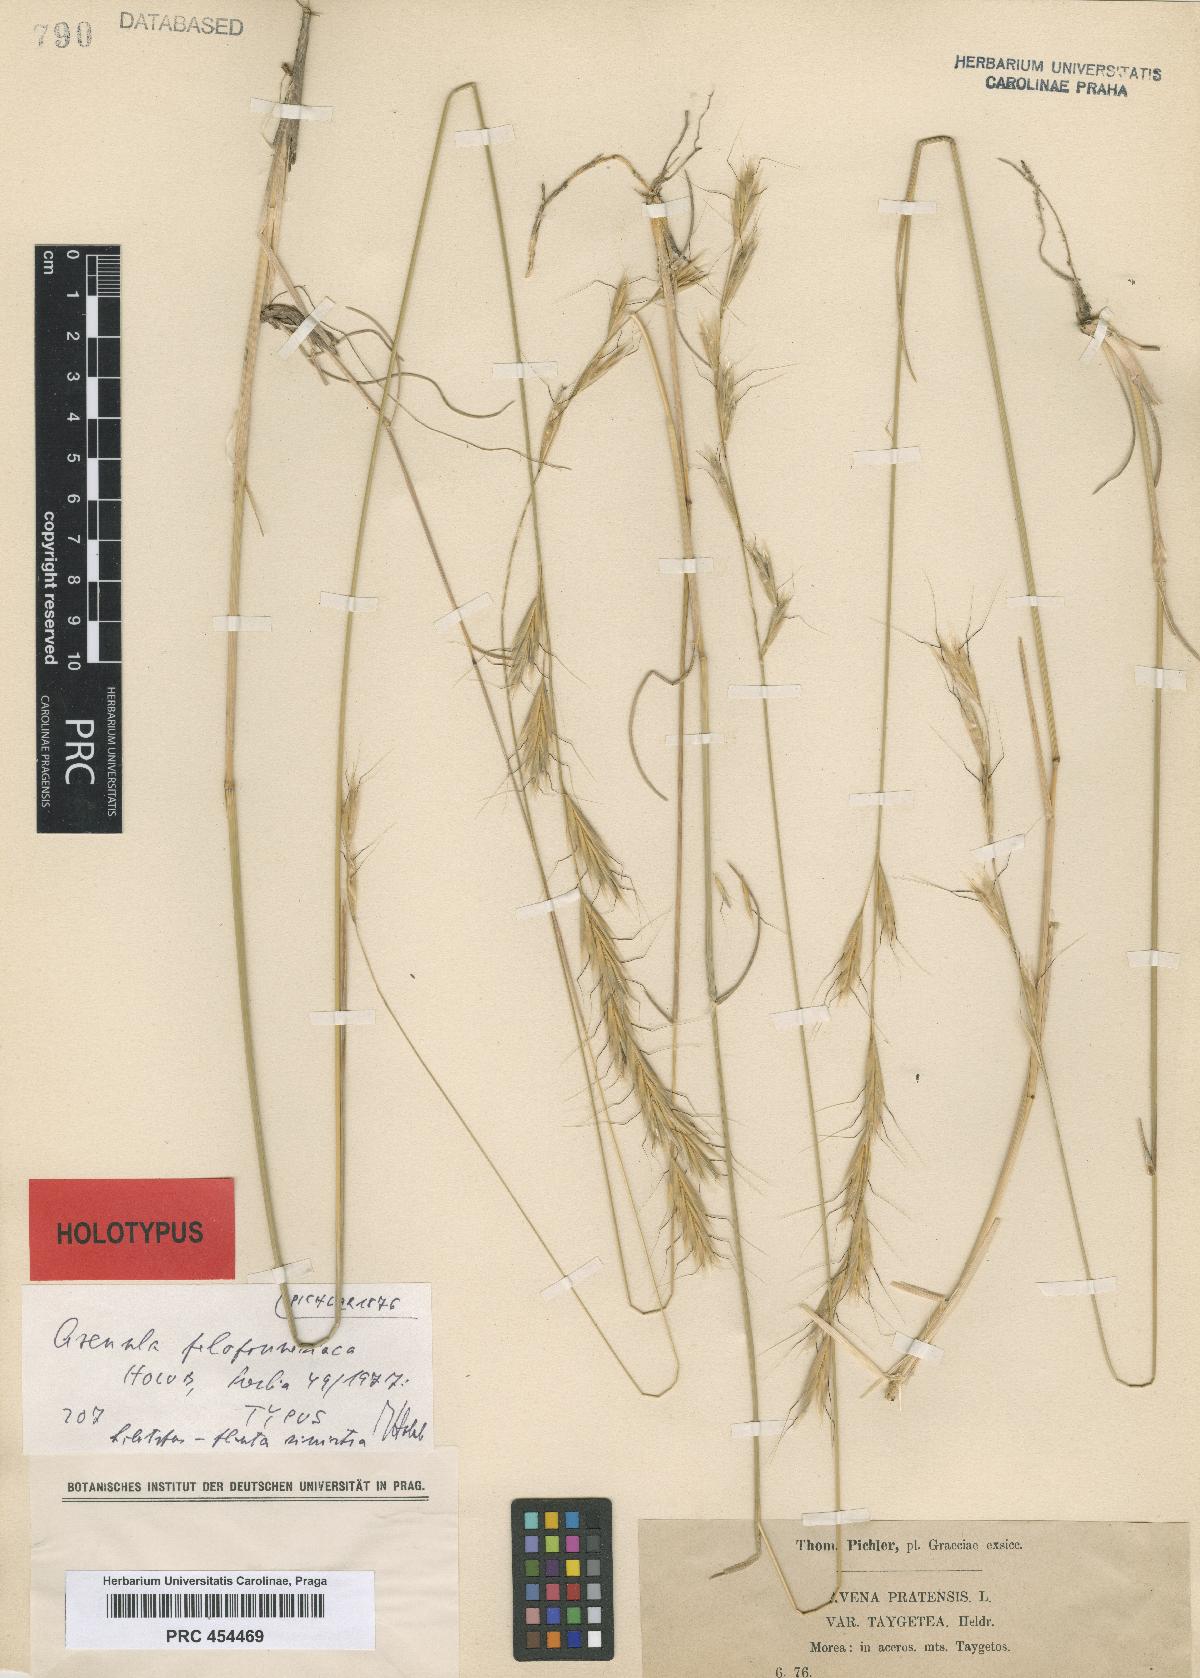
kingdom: Plantae
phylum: Tracheophyta
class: Liliopsida
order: Poales
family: Poaceae
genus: Helictochloa
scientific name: Helictochloa agropyroides
